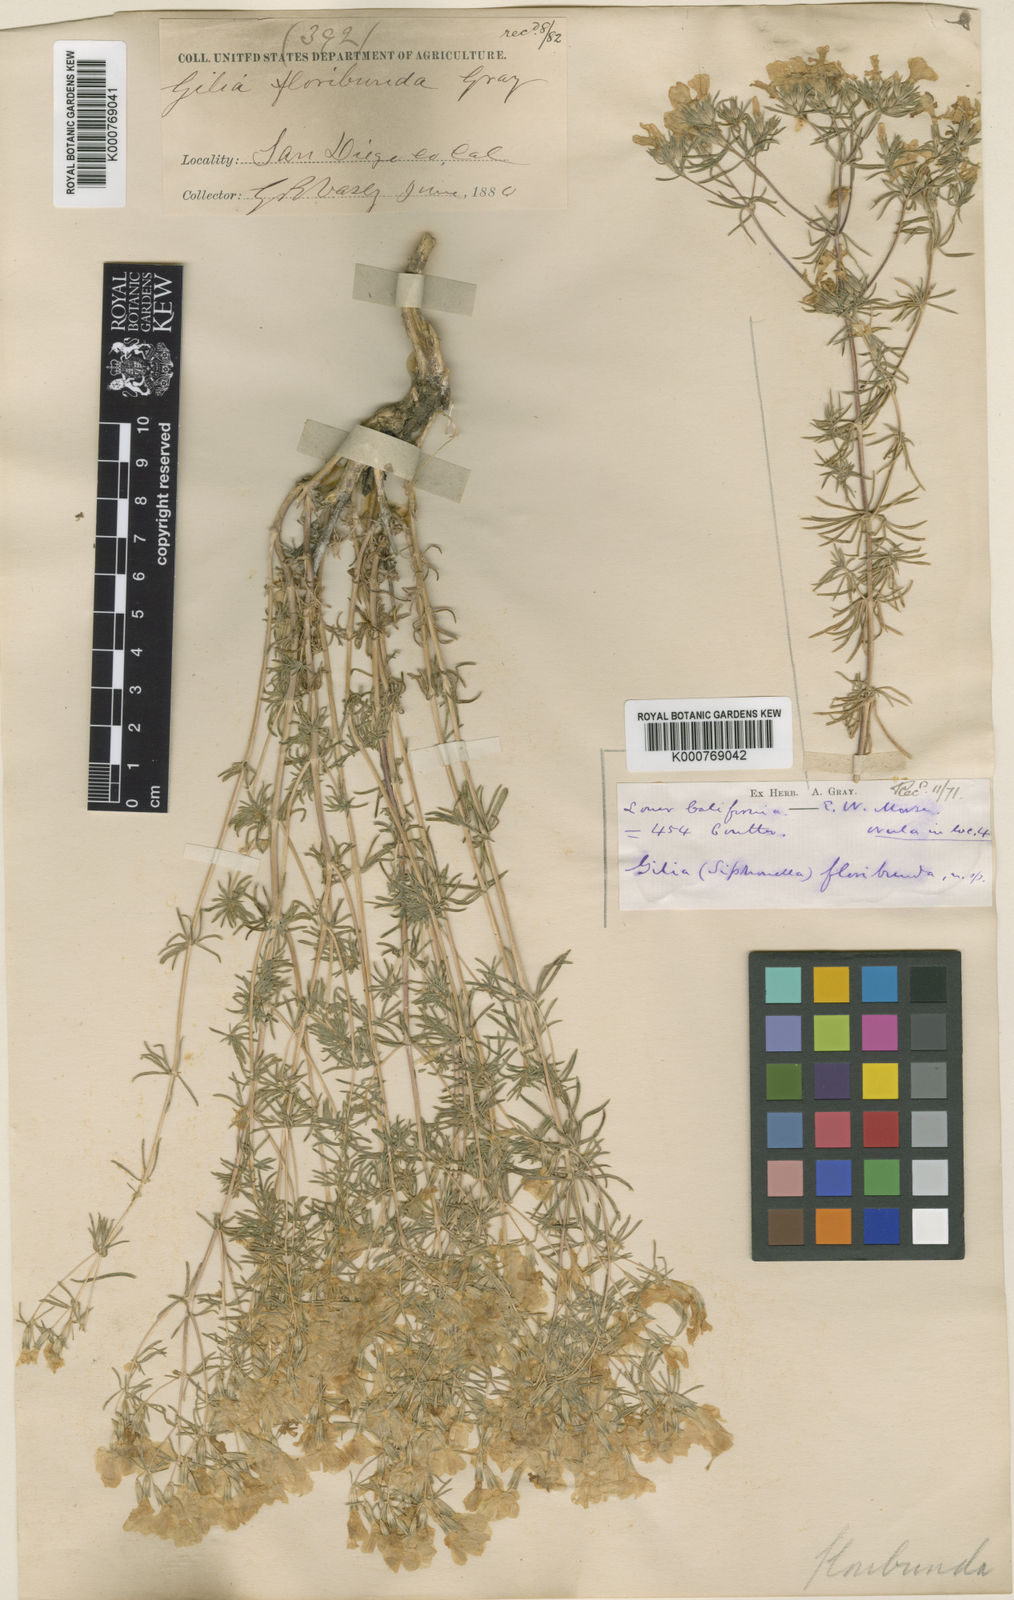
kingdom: Plantae
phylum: Tracheophyta
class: Magnoliopsida
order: Ericales
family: Polemoniaceae
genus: Leptosiphon
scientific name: Leptosiphon nuttallii
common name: Nuttall's linanthus
